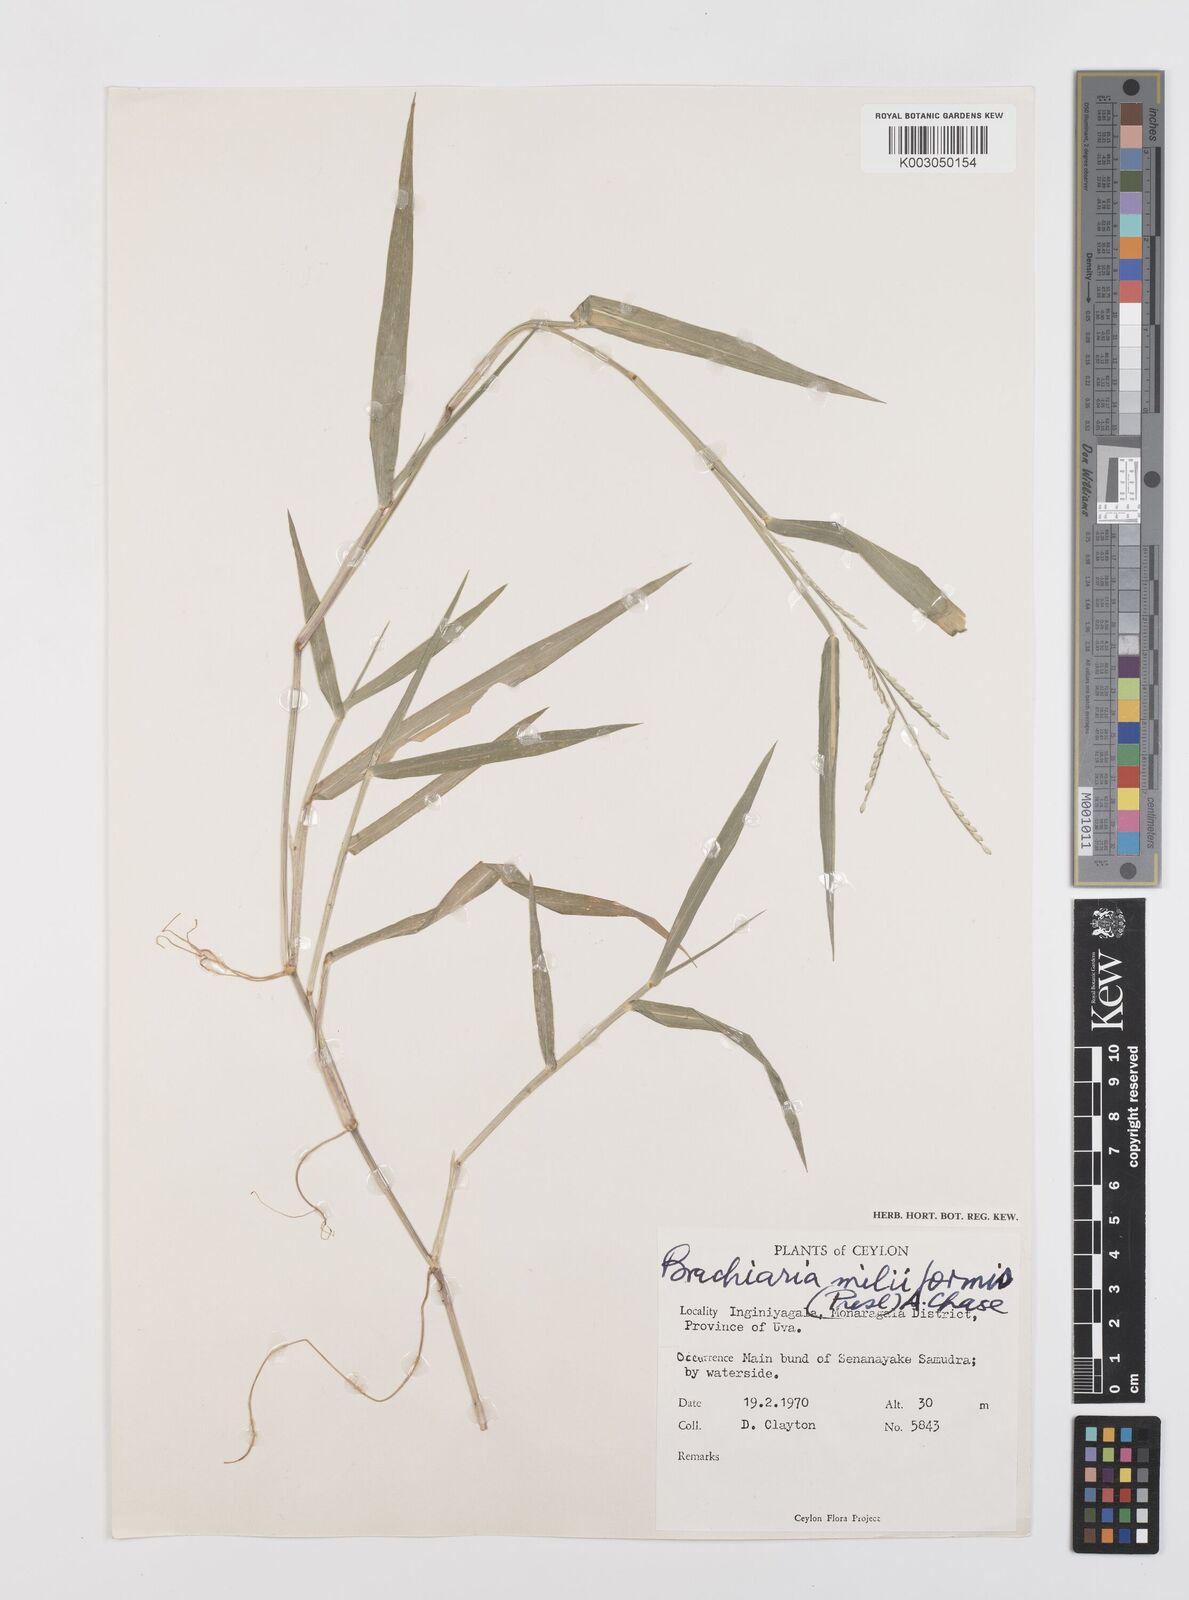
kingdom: Plantae
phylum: Tracheophyta
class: Liliopsida
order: Poales
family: Poaceae
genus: Urochloa
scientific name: Urochloa subquadripara
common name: Armgrass millet
